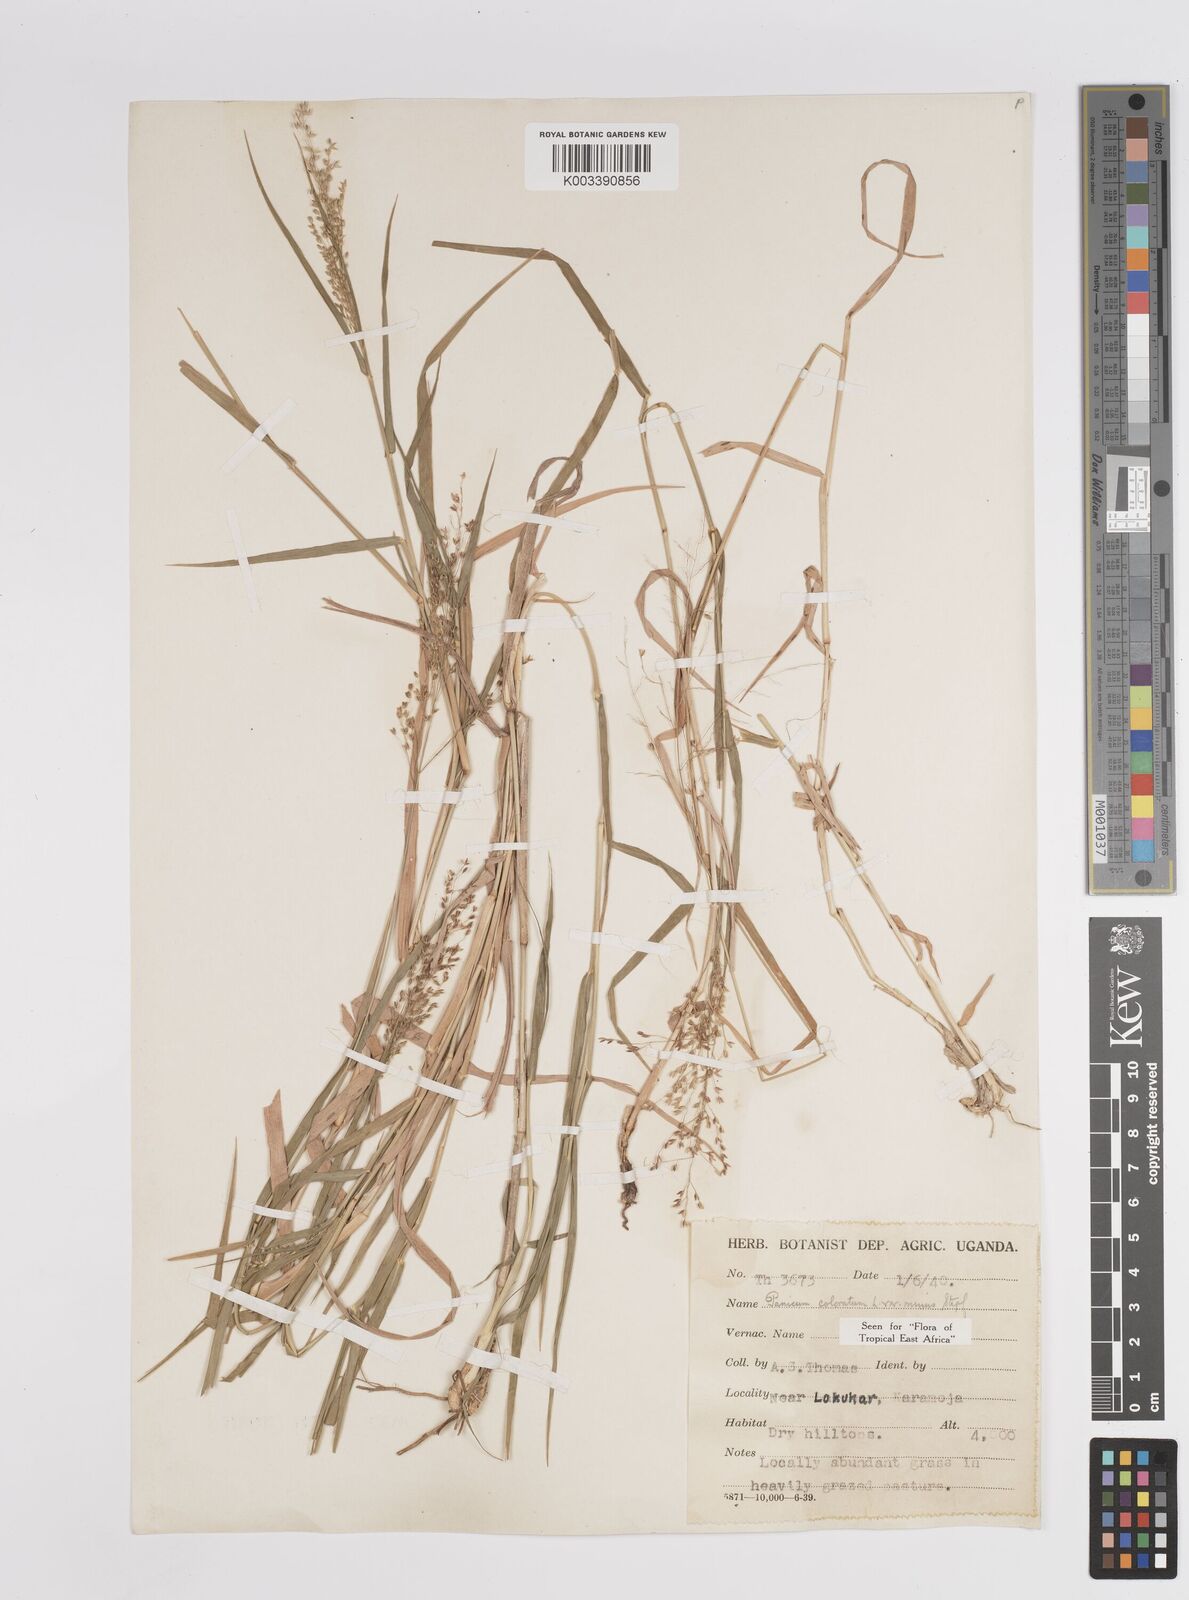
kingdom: Plantae
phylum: Tracheophyta
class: Liliopsida
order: Poales
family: Poaceae
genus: Panicum
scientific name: Panicum coloratum
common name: Kleingrass
